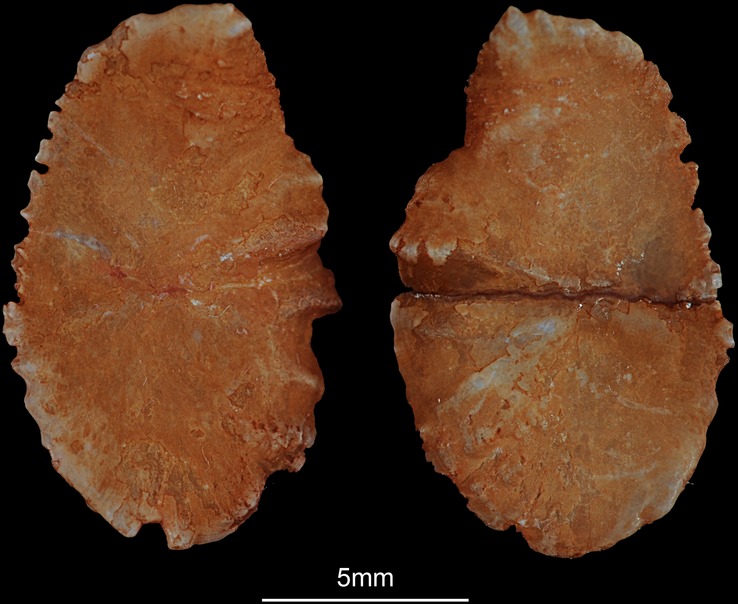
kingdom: Animalia
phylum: Chordata
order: Perciformes
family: Cichlidae
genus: Oreochromis
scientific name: Oreochromis niloticus
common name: Nile tilapia
